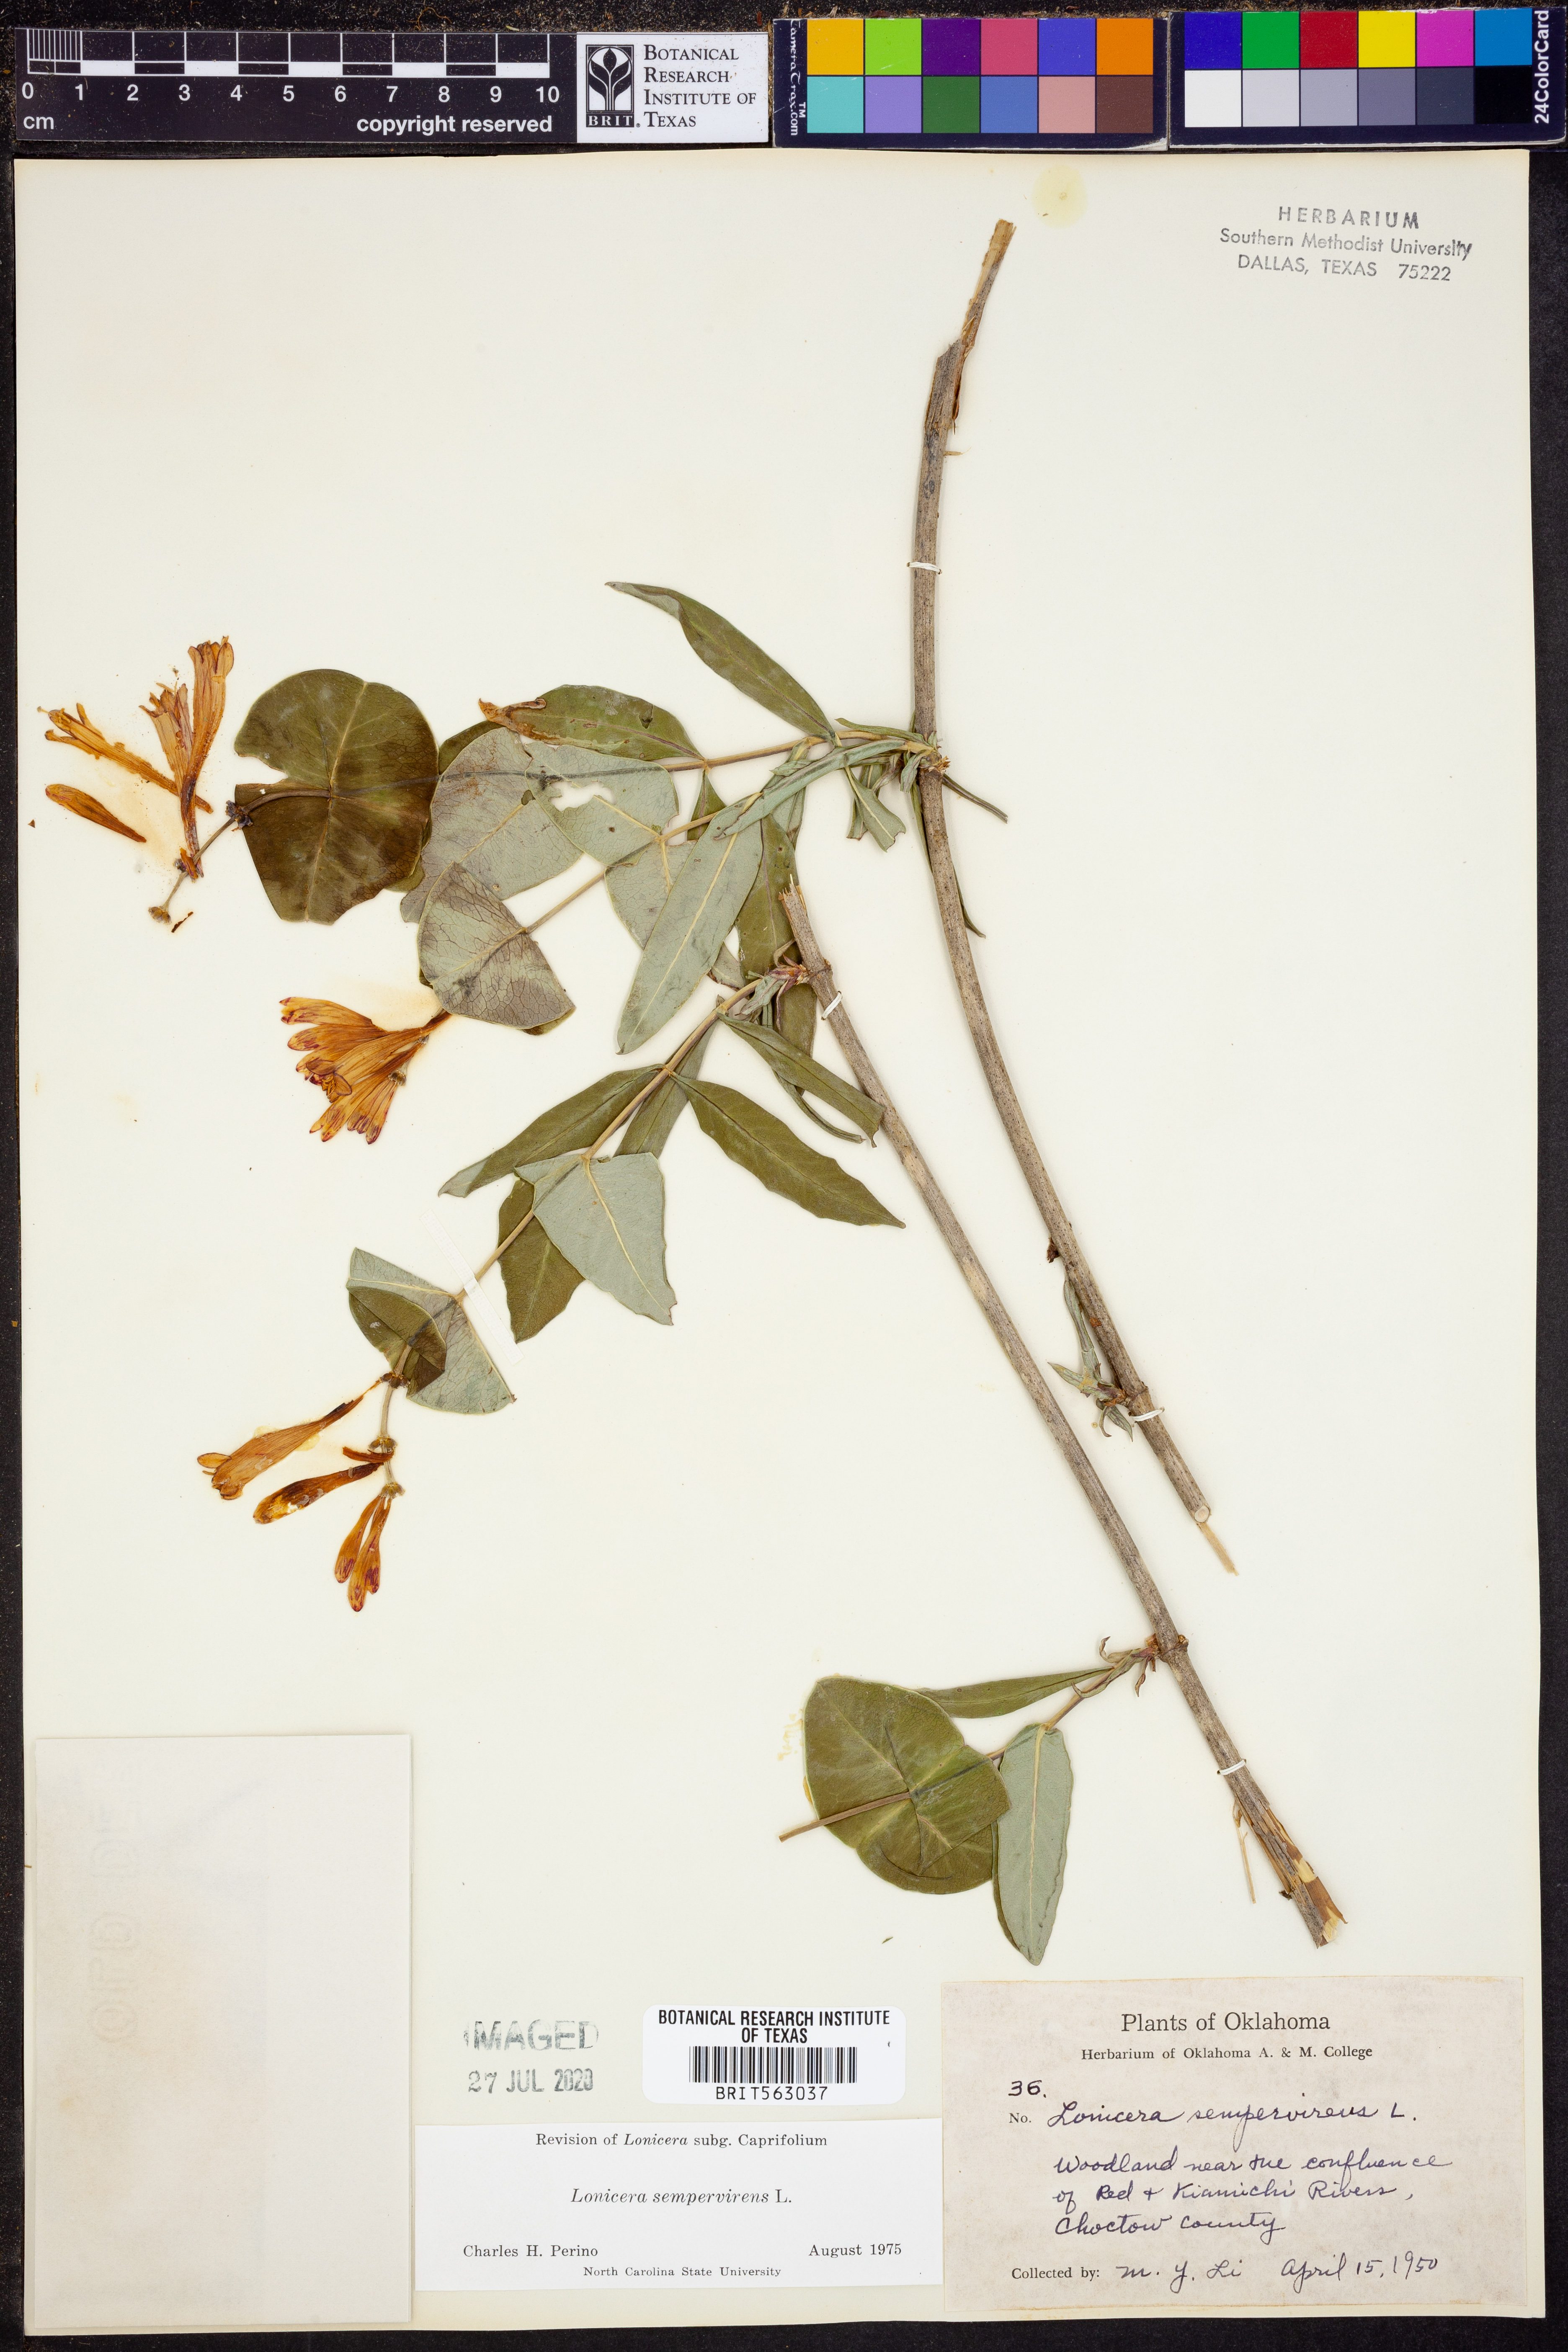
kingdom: Plantae
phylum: Tracheophyta
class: Magnoliopsida
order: Dipsacales
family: Caprifoliaceae
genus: Lonicera
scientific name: Lonicera sempervirens
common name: Coral honeysuckle
